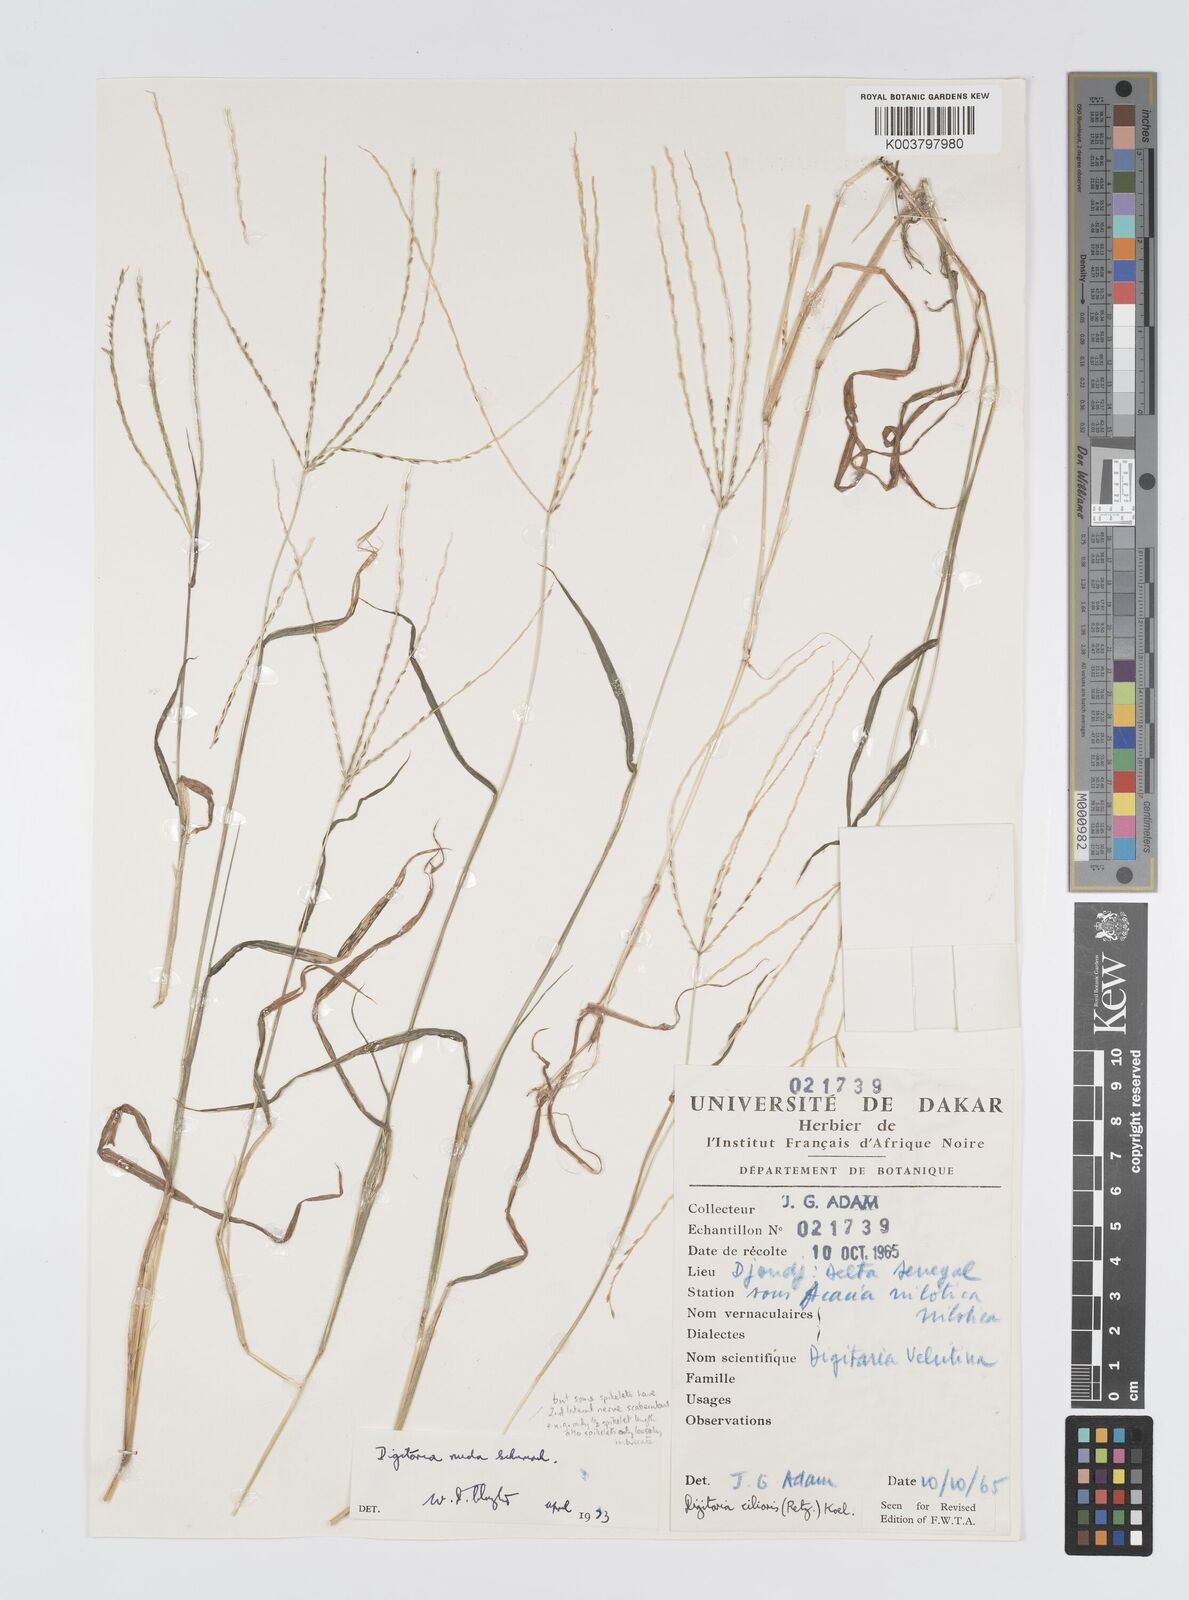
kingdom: Plantae
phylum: Tracheophyta
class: Liliopsida
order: Poales
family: Poaceae
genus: Digitaria
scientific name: Digitaria nuda
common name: Naked crabgrass
